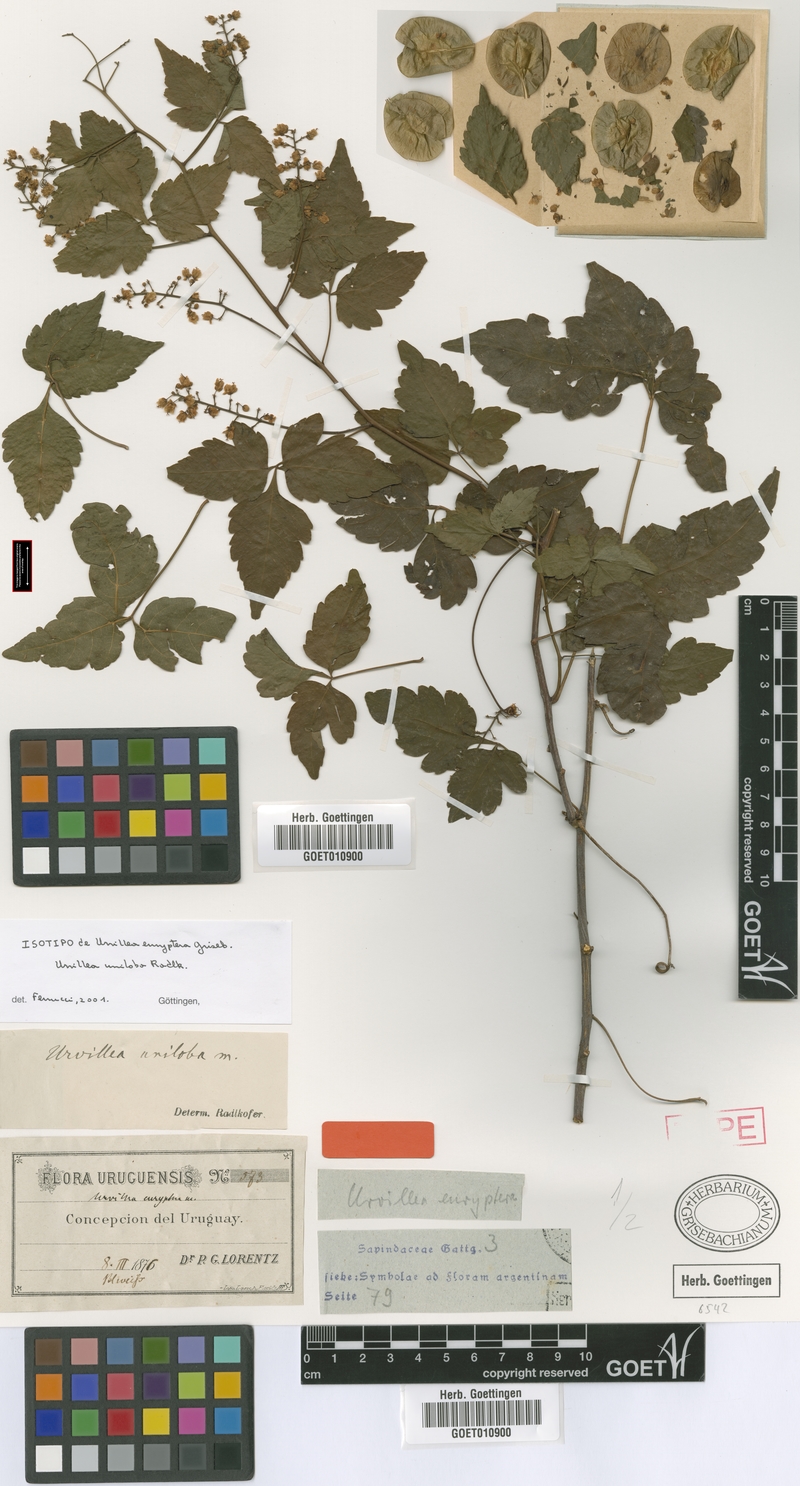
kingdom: Plantae
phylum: Tracheophyta
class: Magnoliopsida
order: Sapindales
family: Sapindaceae
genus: Urvillea
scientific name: Urvillea uniloba
